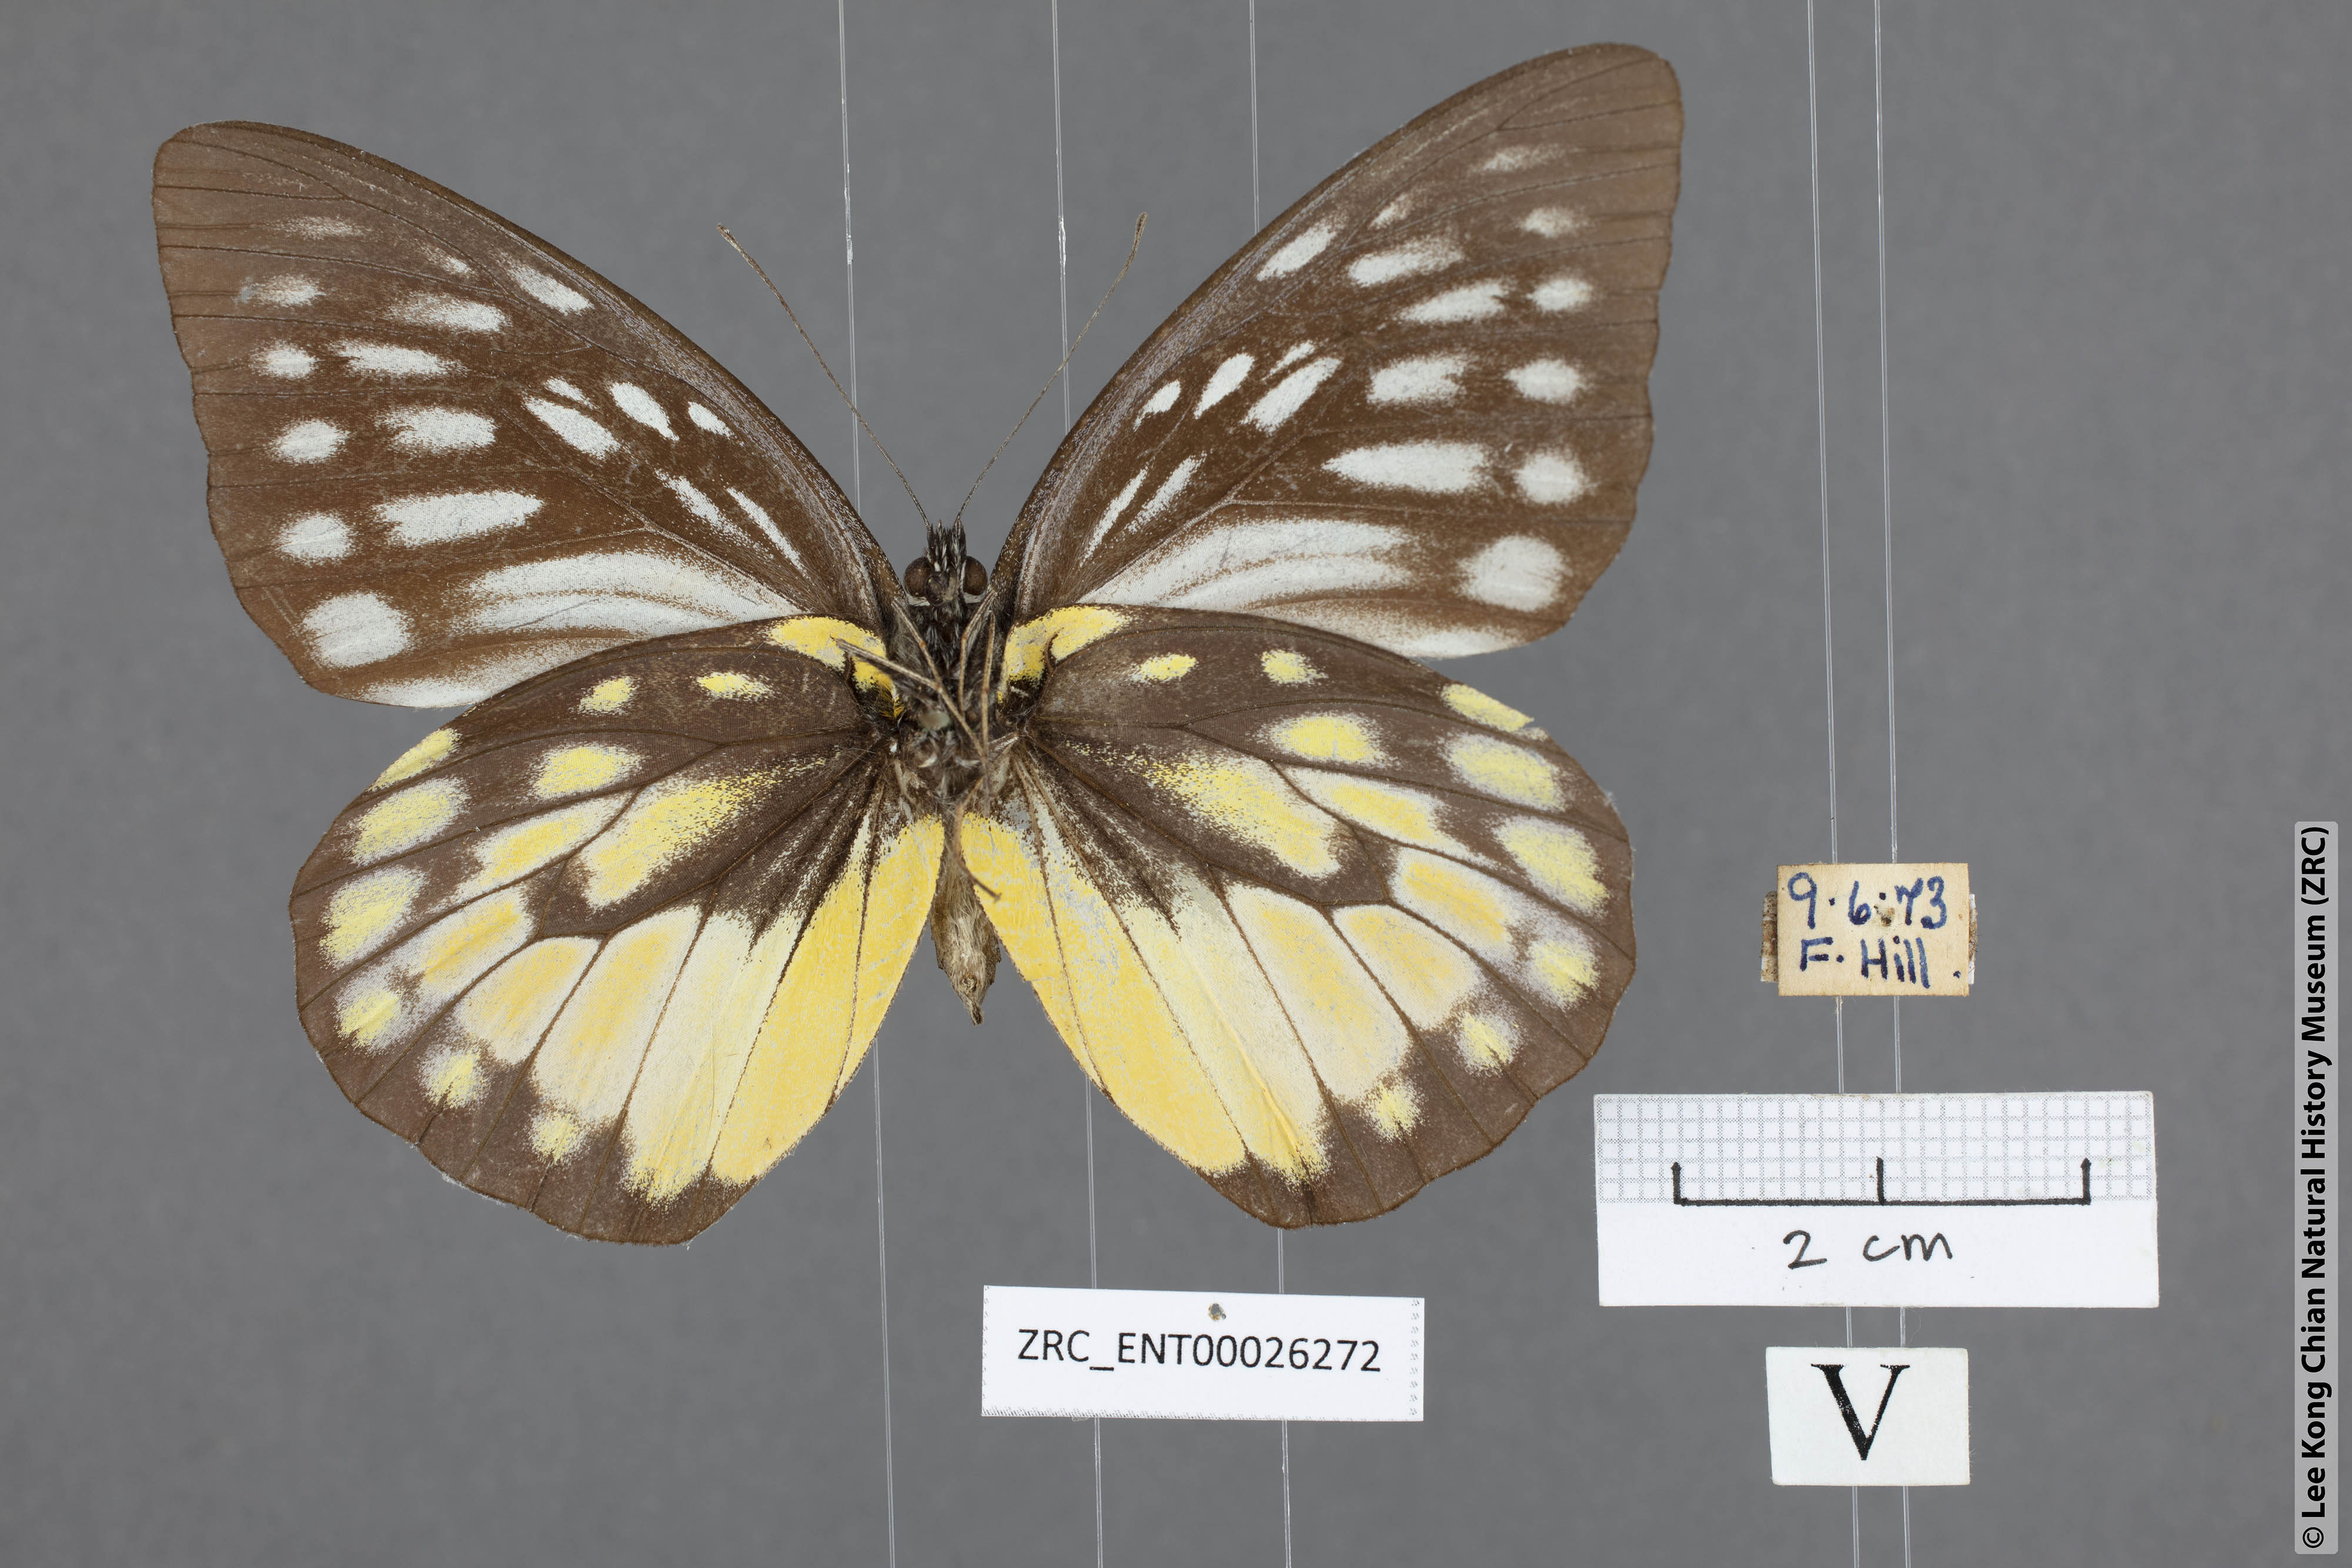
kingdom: Animalia
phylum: Arthropoda
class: Insecta
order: Lepidoptera
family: Pieridae
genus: Prioneris
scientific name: Prioneris thestylis
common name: Spotted sawtooth
